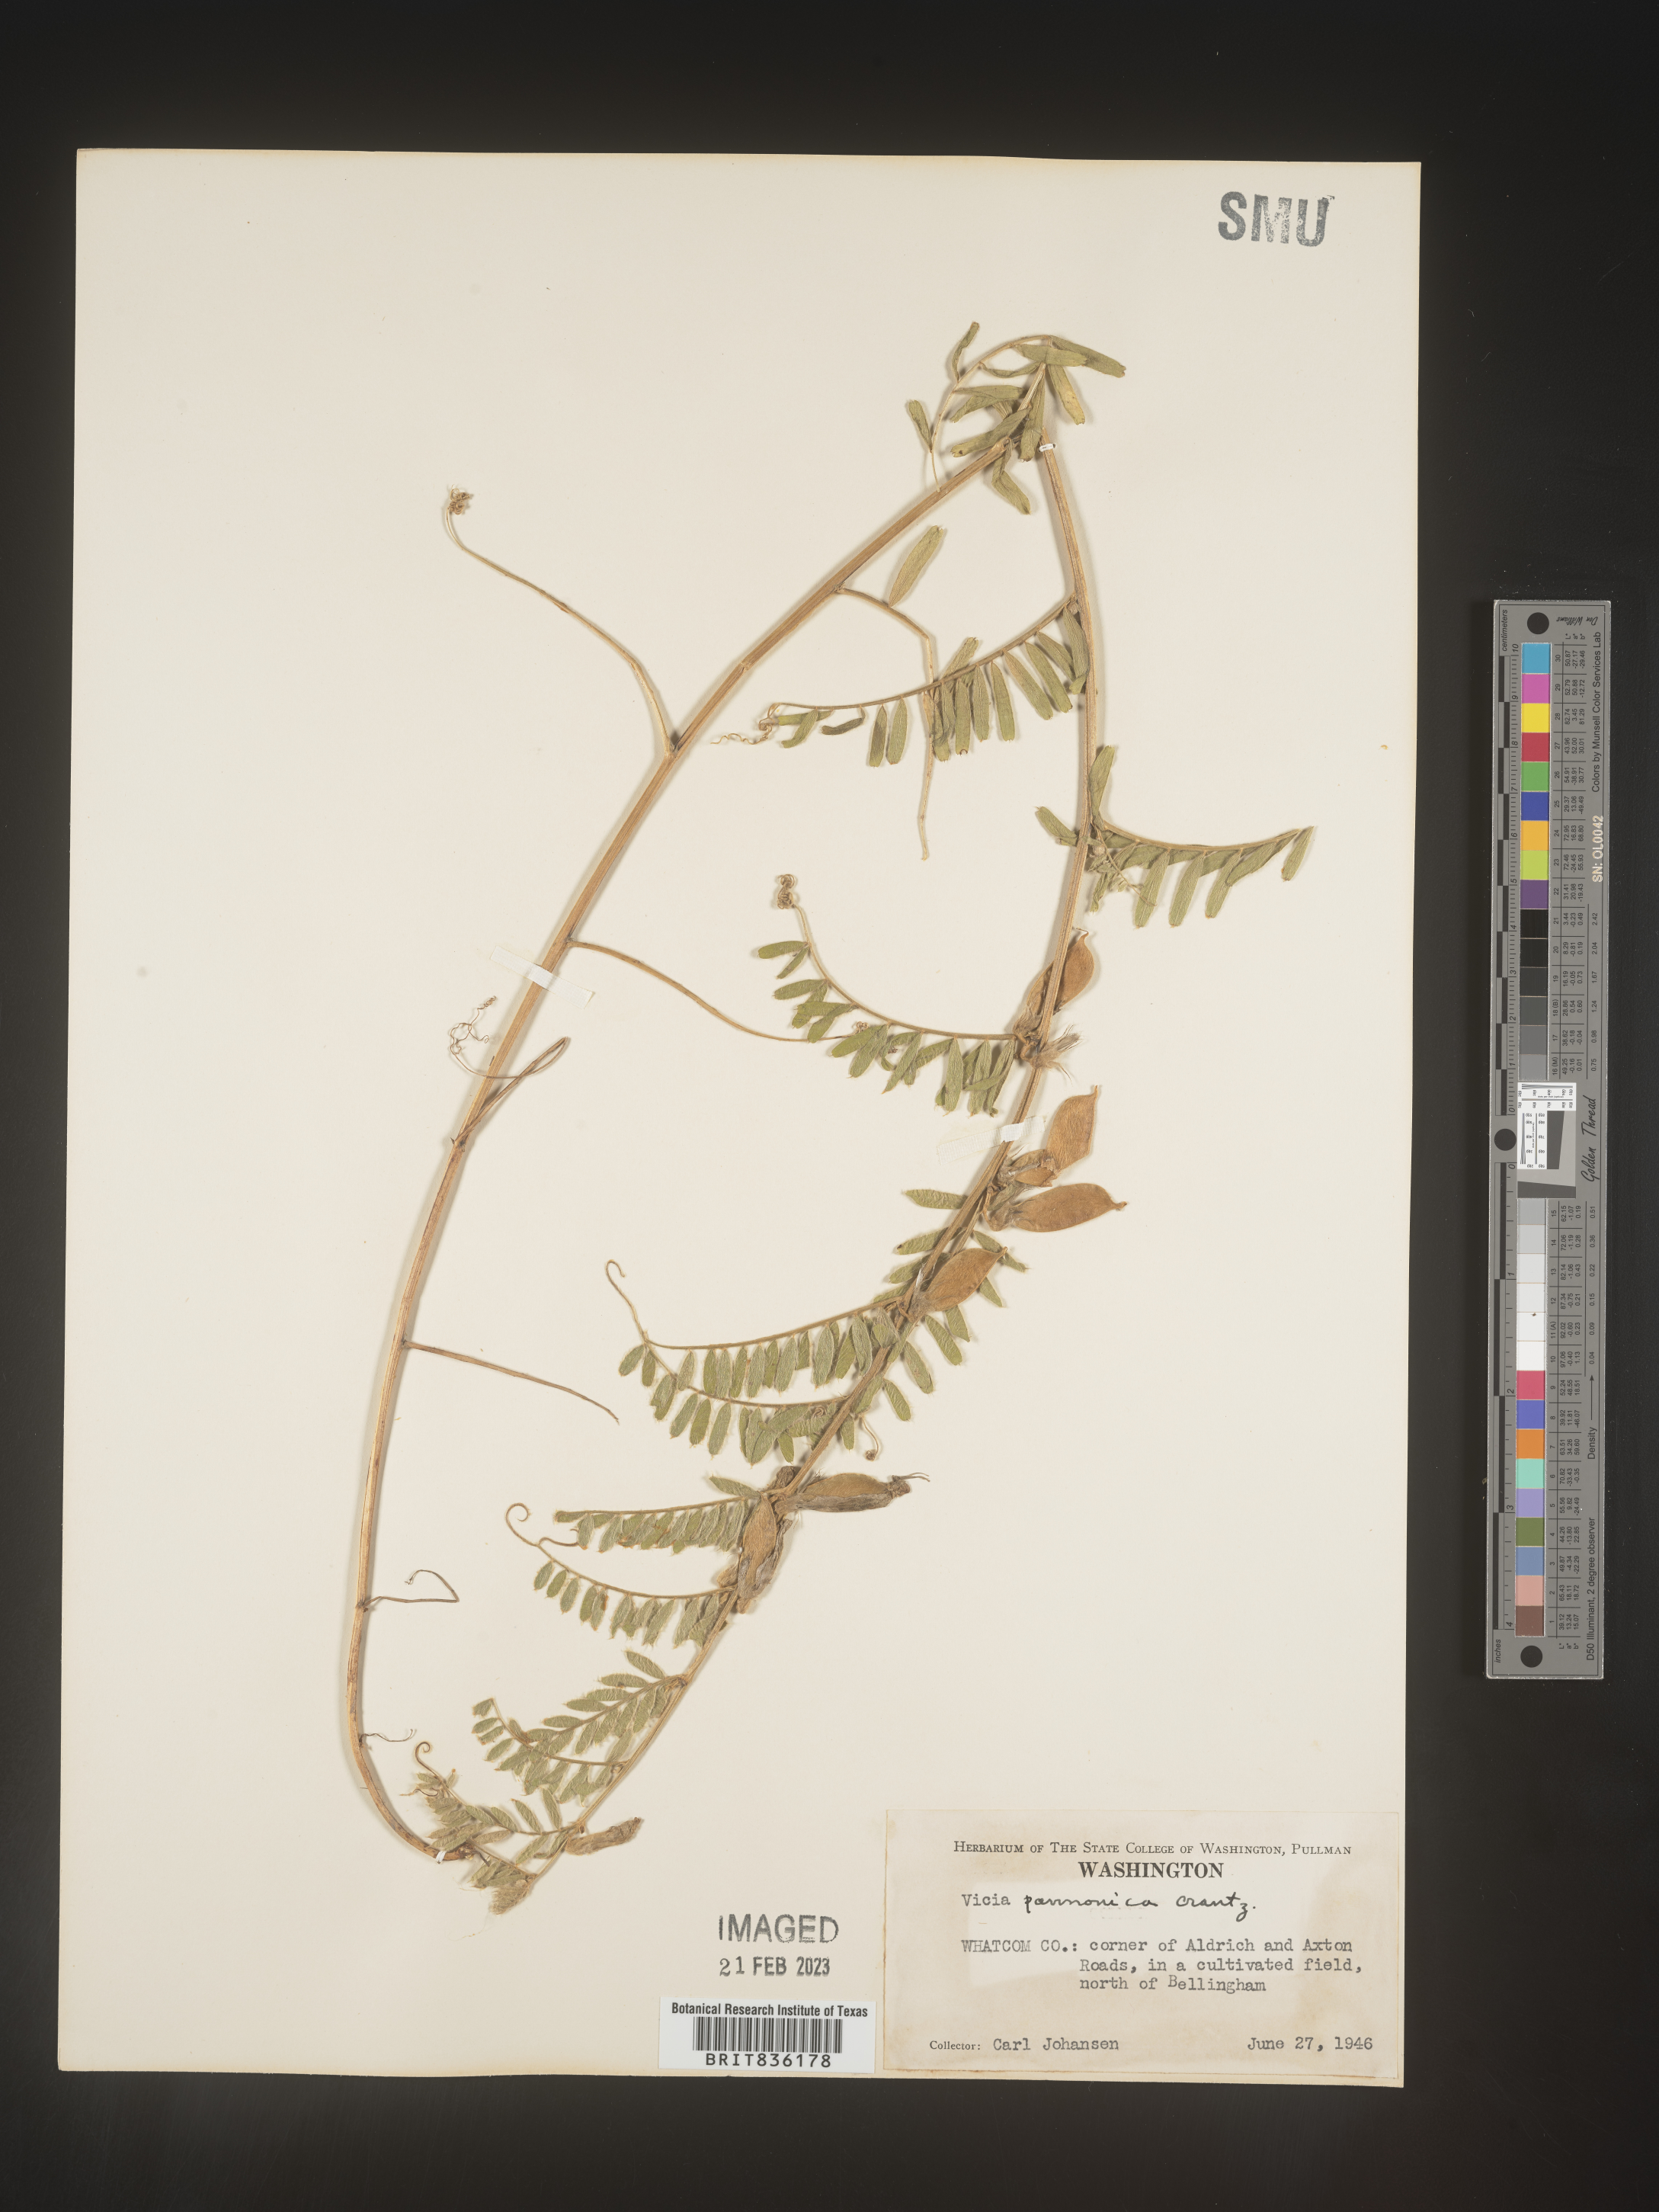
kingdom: Plantae
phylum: Tracheophyta
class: Magnoliopsida
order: Fabales
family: Fabaceae
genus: Vicia
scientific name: Vicia
